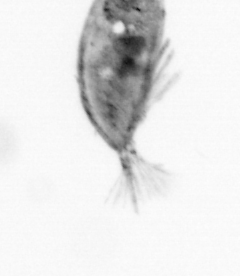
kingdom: Animalia
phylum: Arthropoda
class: Maxillopoda
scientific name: Maxillopoda
